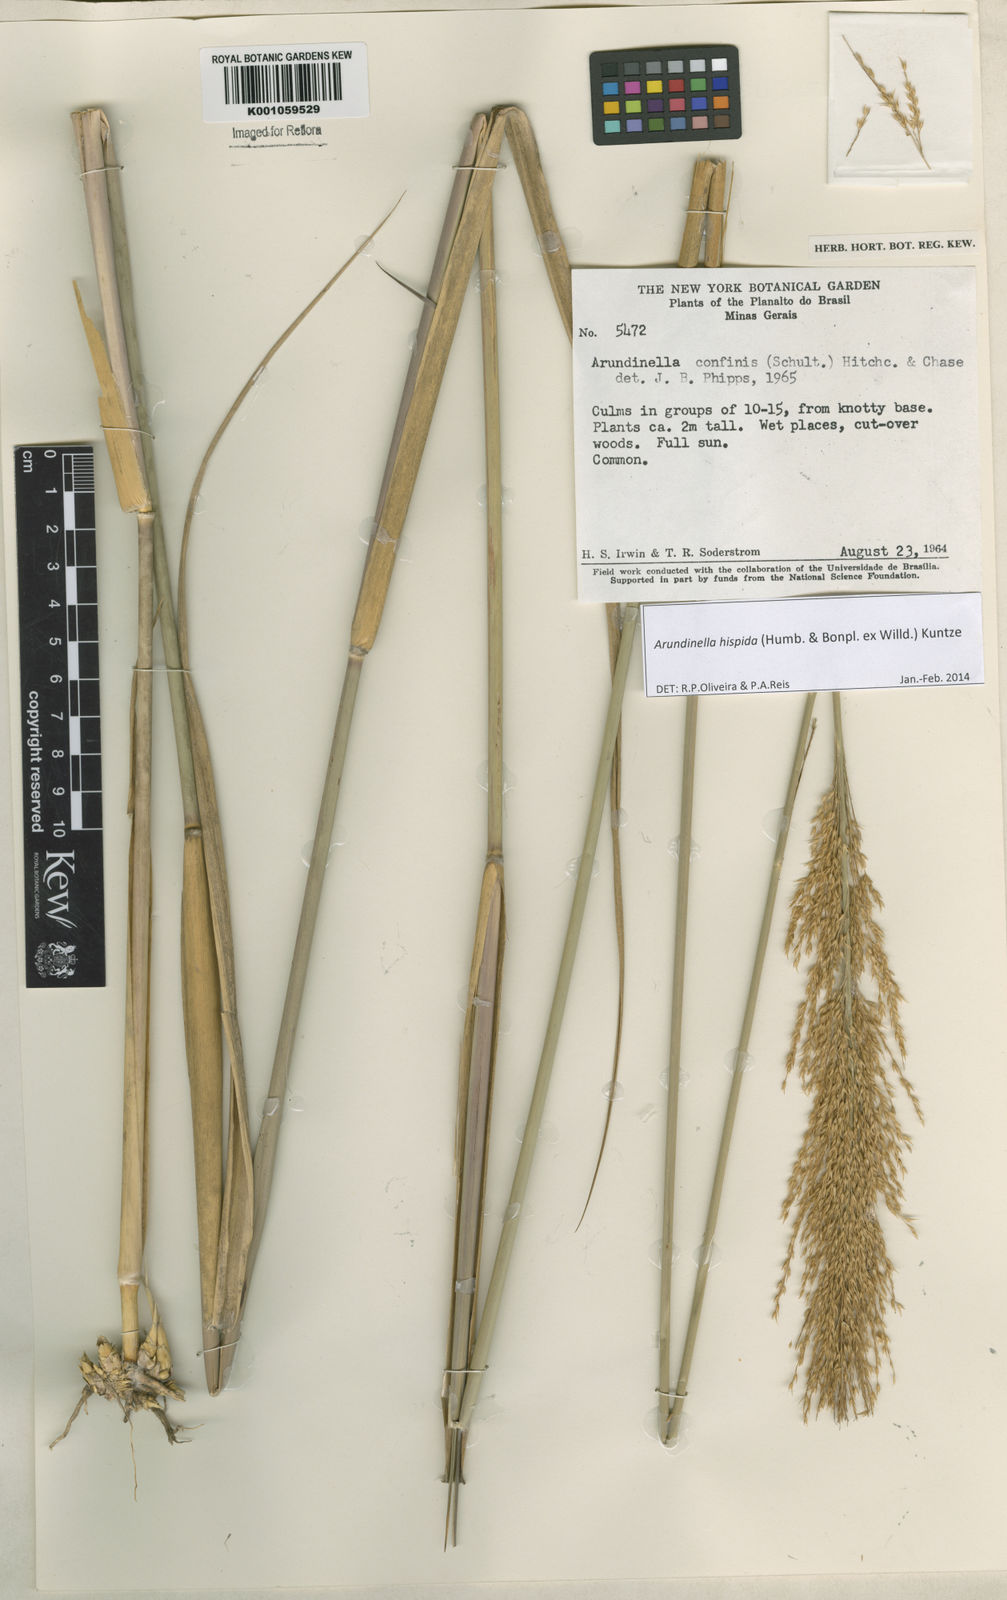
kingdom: Plantae
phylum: Tracheophyta
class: Liliopsida
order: Poales
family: Poaceae
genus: Arundinella
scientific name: Arundinella hispida
